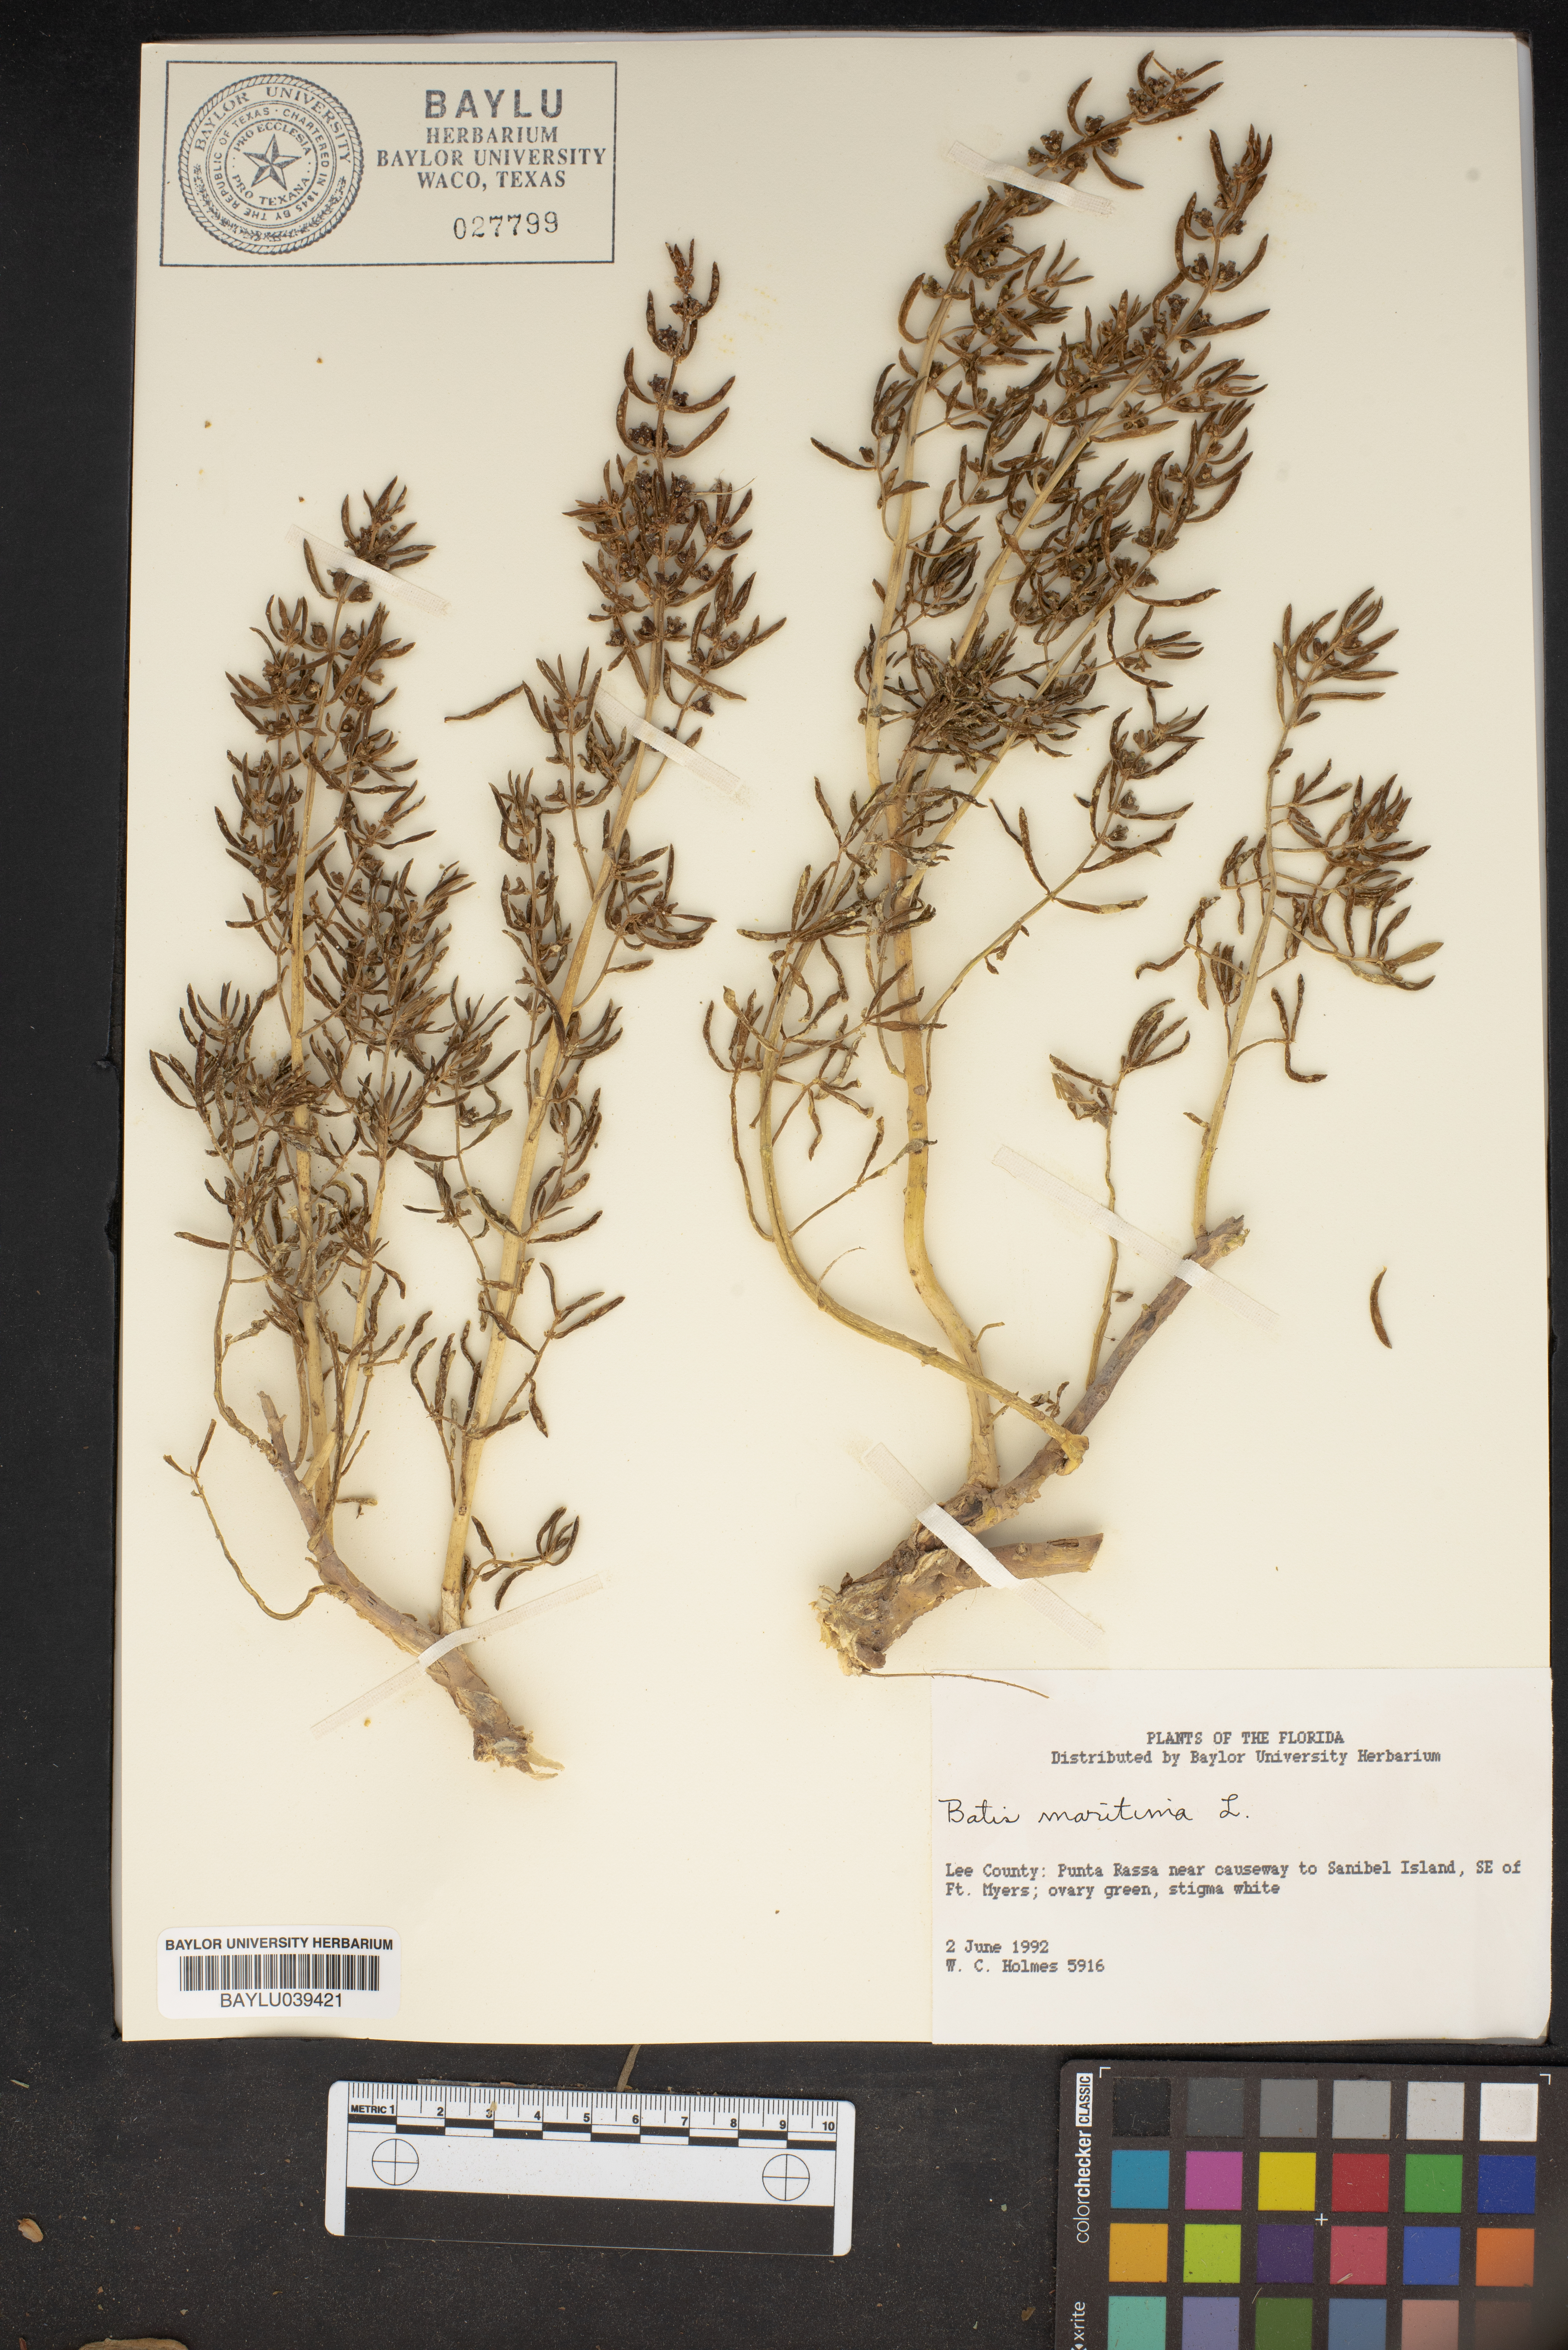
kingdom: Plantae
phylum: Tracheophyta
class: Magnoliopsida
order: Brassicales
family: Bataceae
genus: Batis
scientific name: Batis maritima
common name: Turtleweed
